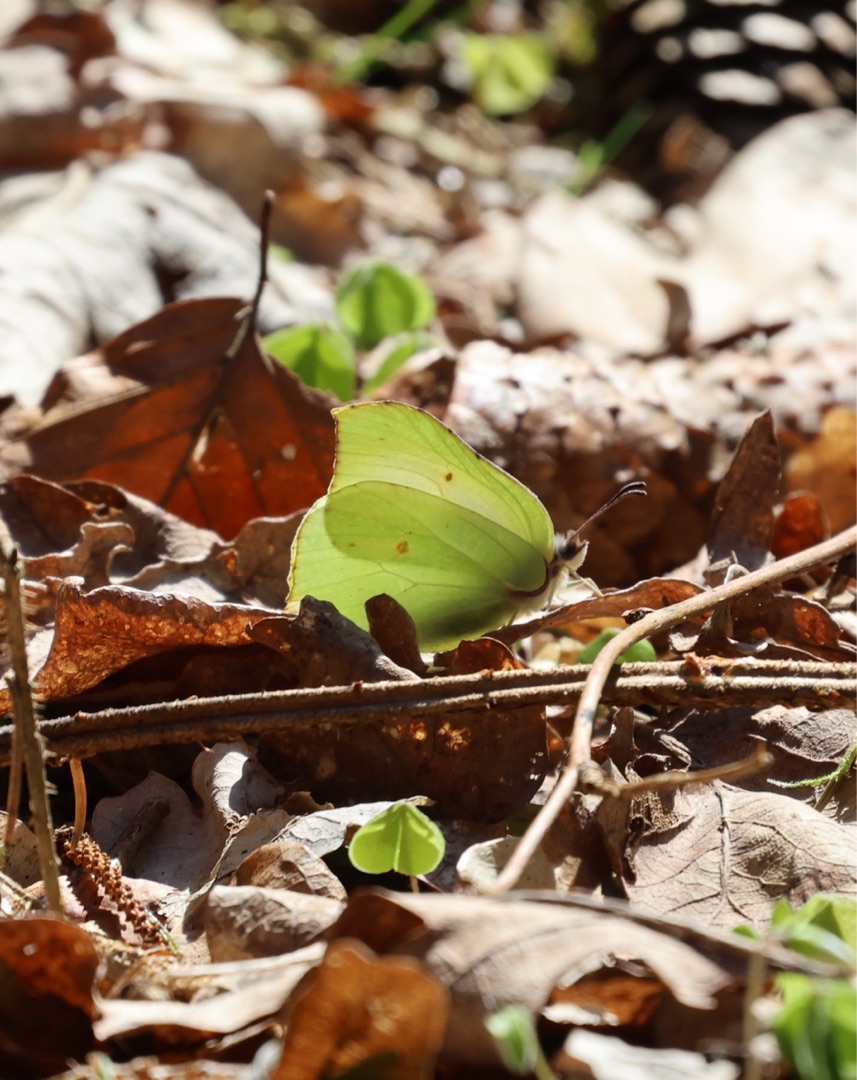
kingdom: Animalia
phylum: Arthropoda
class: Insecta
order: Lepidoptera
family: Pieridae
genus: Gonepteryx
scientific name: Gonepteryx rhamni
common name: Citronsommerfugl
